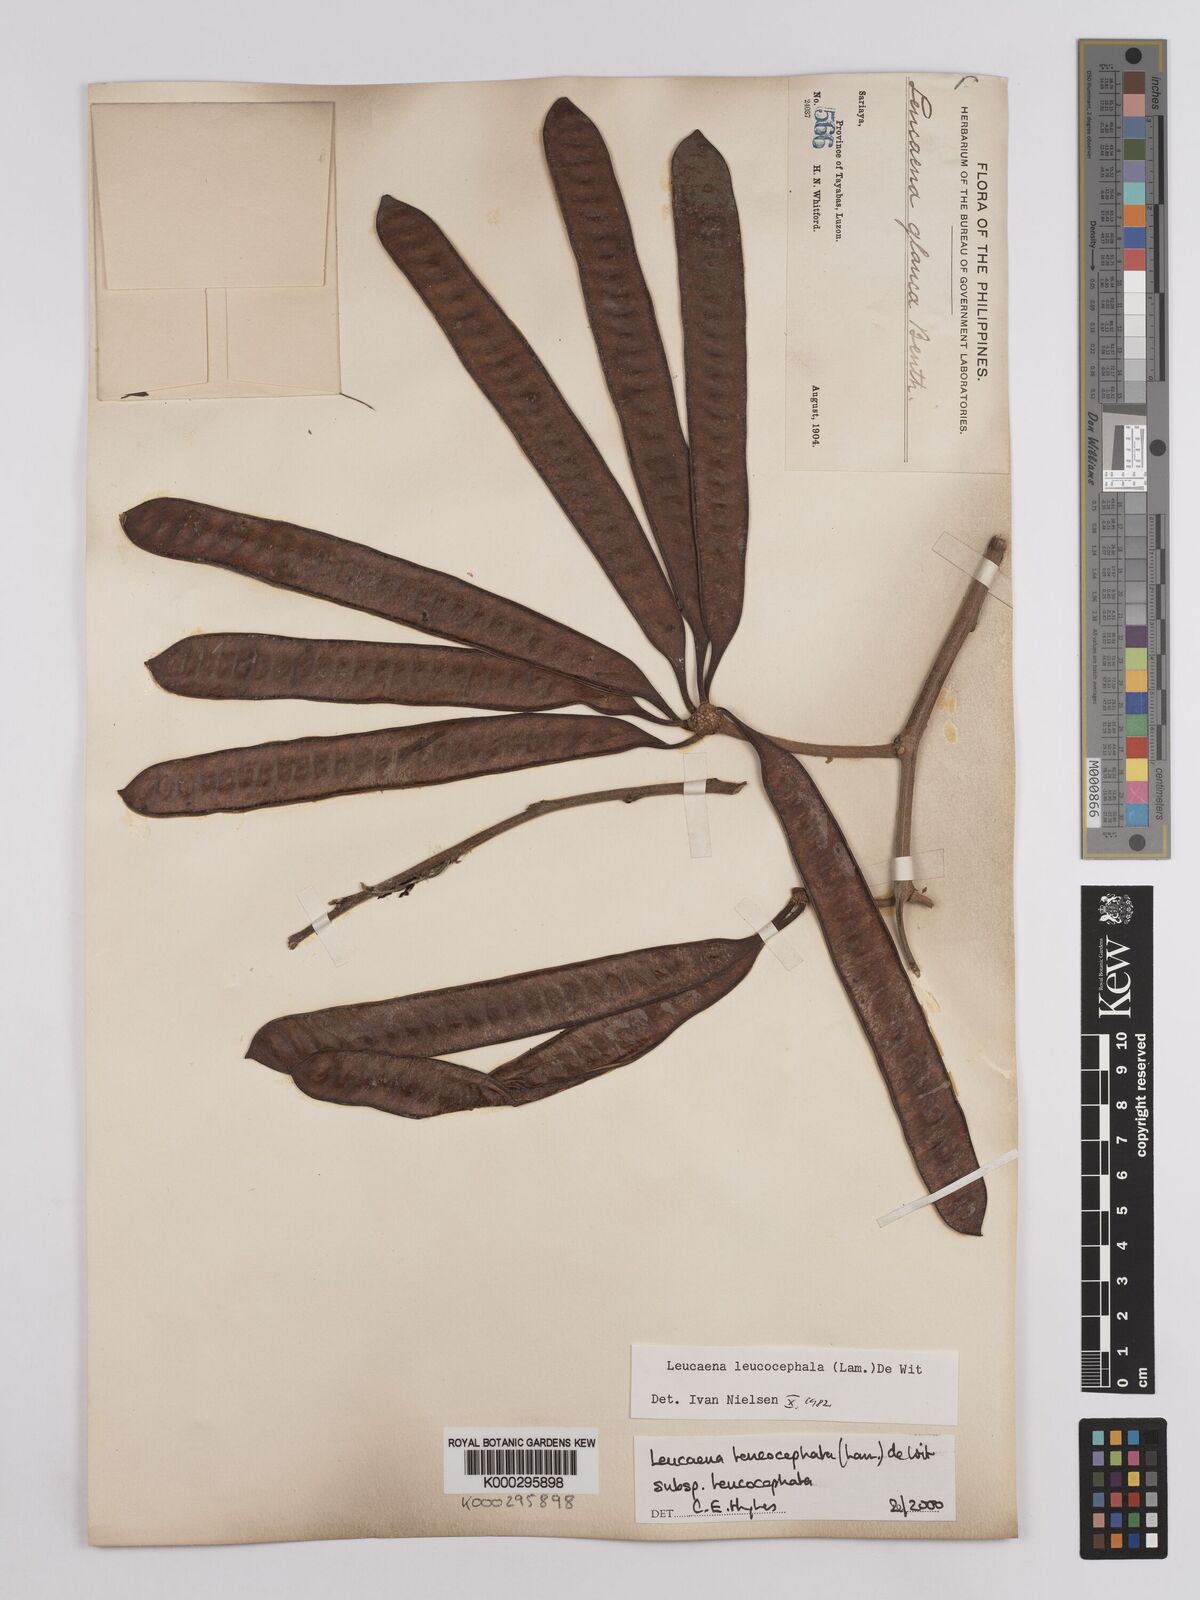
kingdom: Plantae
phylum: Tracheophyta
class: Magnoliopsida
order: Fabales
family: Fabaceae
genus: Leucaena
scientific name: Leucaena leucocephala
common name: White leadtree
